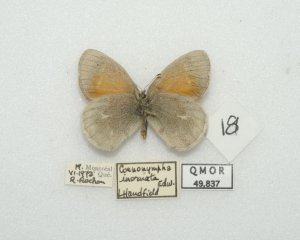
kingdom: Animalia
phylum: Arthropoda
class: Insecta
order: Lepidoptera
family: Nymphalidae
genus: Coenonympha
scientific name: Coenonympha tullia
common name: Large Heath
